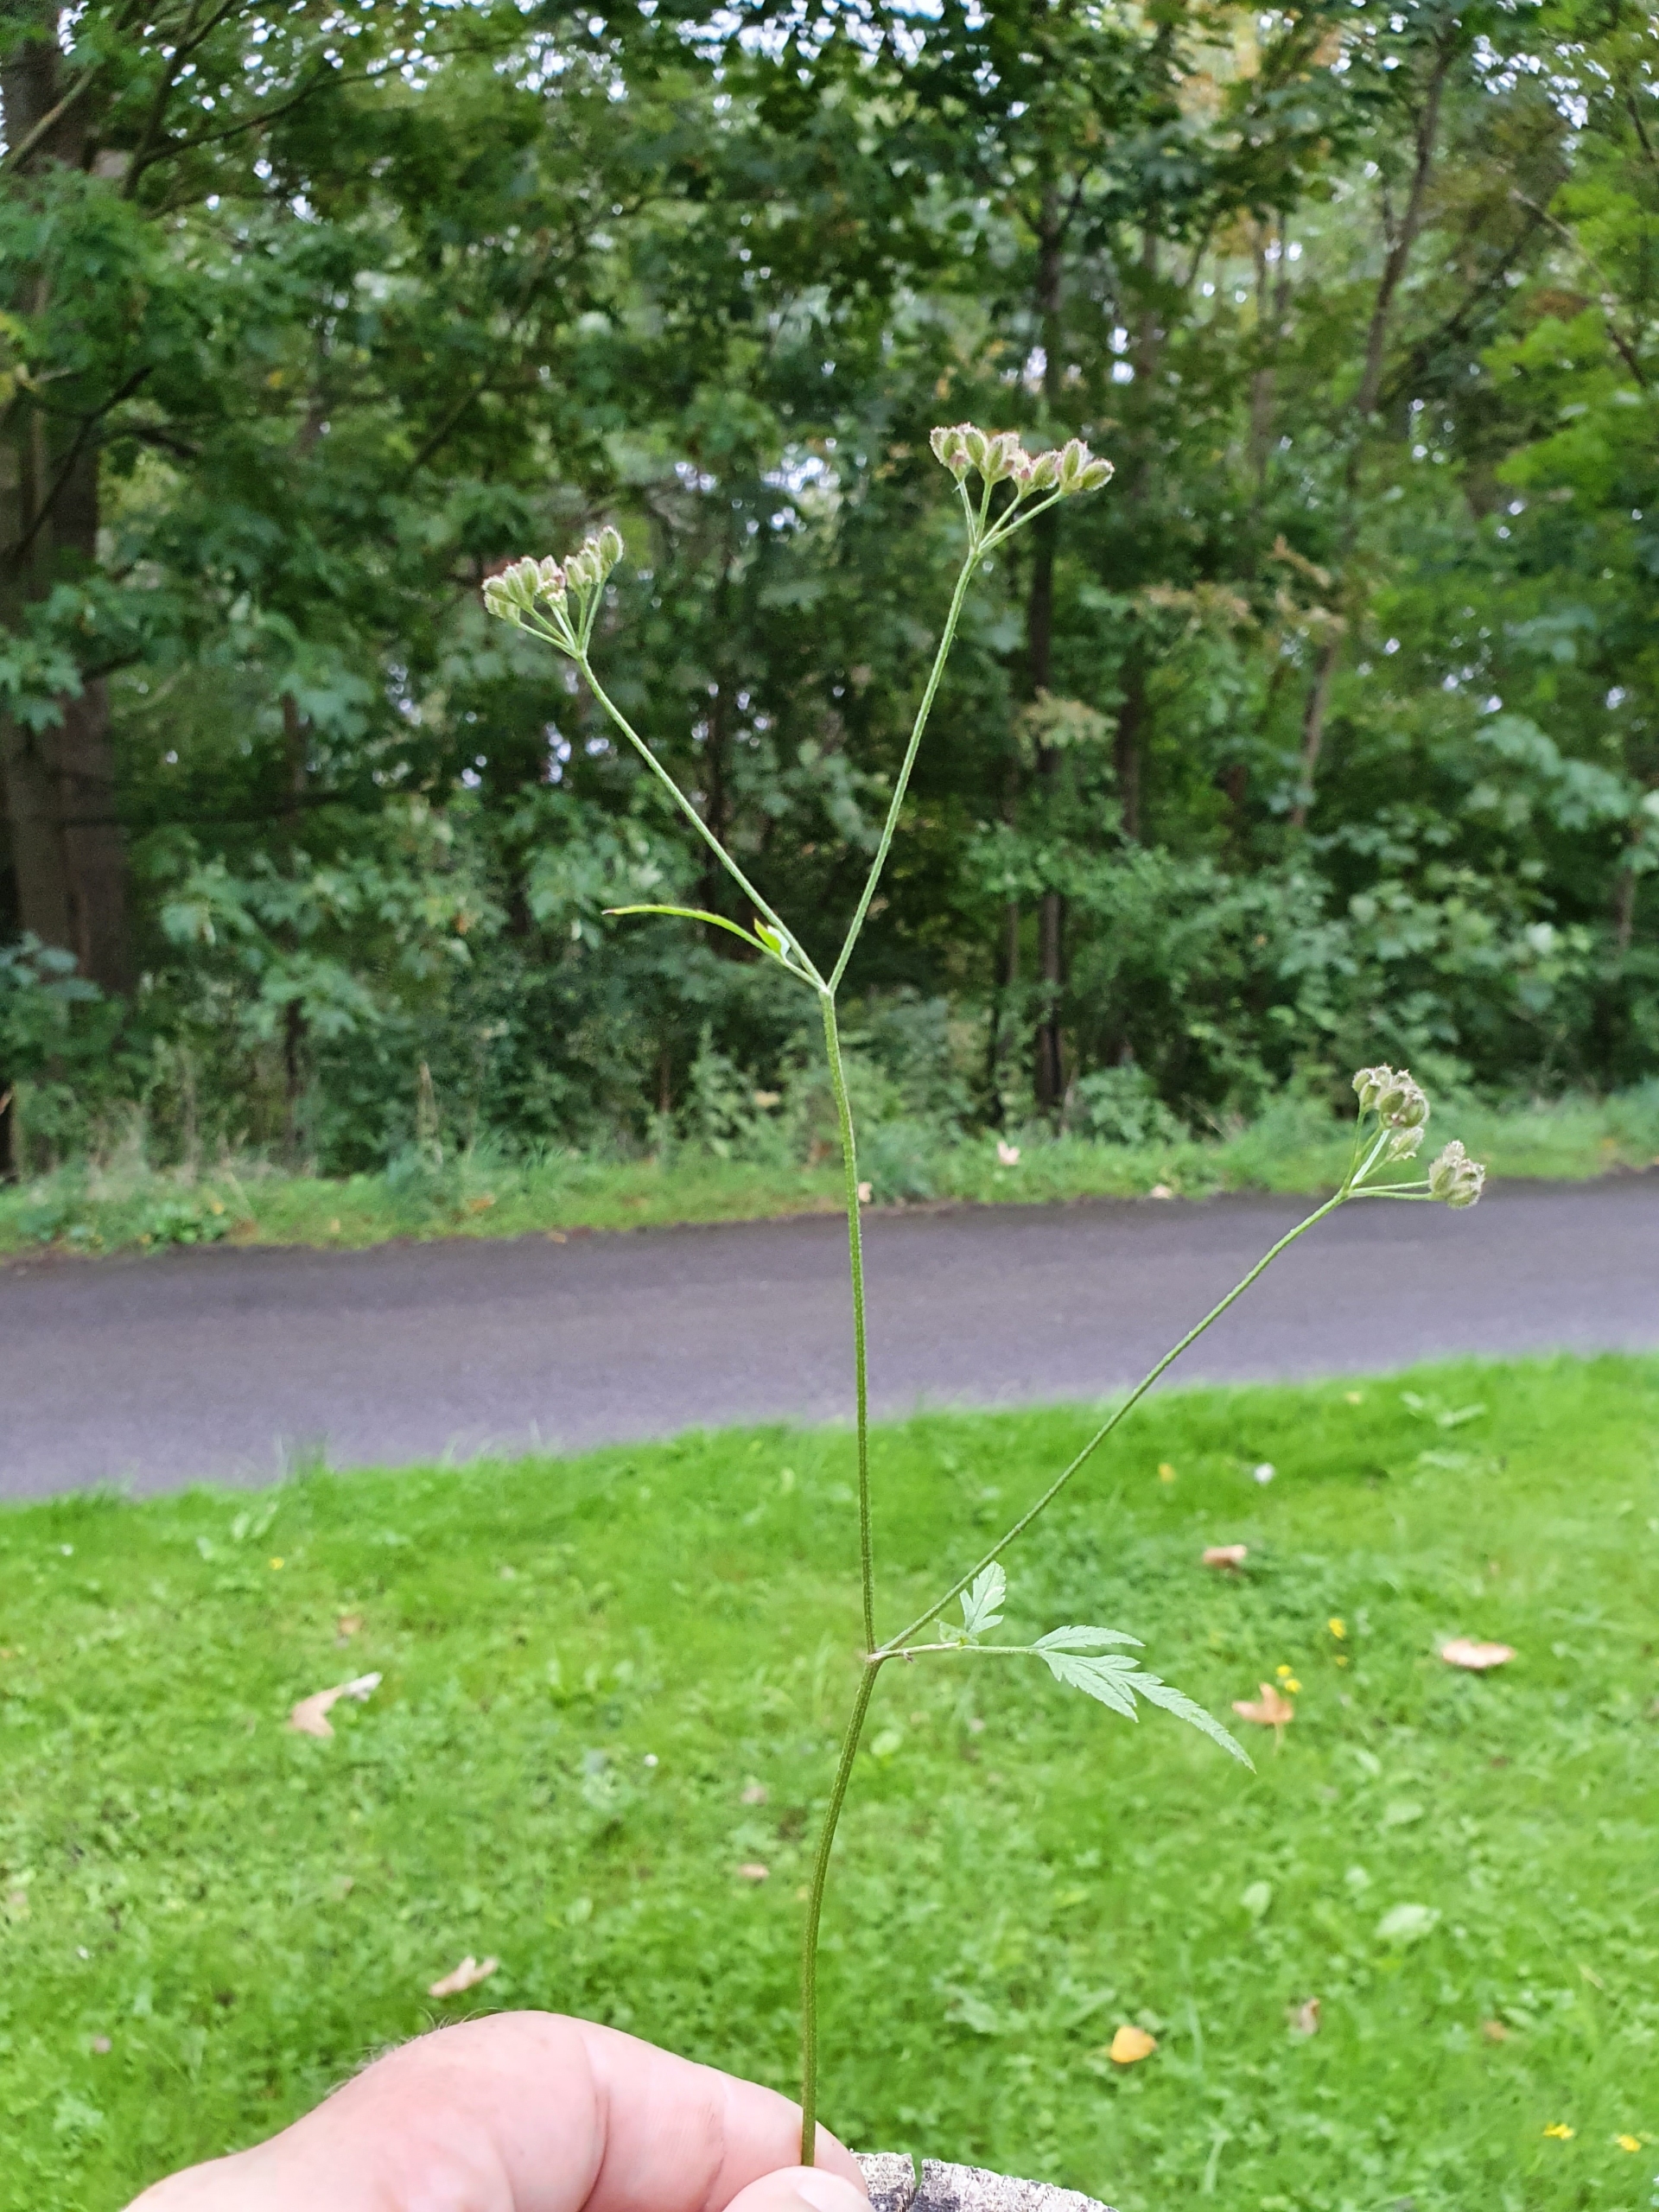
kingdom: Plantae
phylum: Tracheophyta
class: Magnoliopsida
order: Apiales
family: Apiaceae
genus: Torilis
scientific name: Torilis japonica
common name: Hvas randfrø
